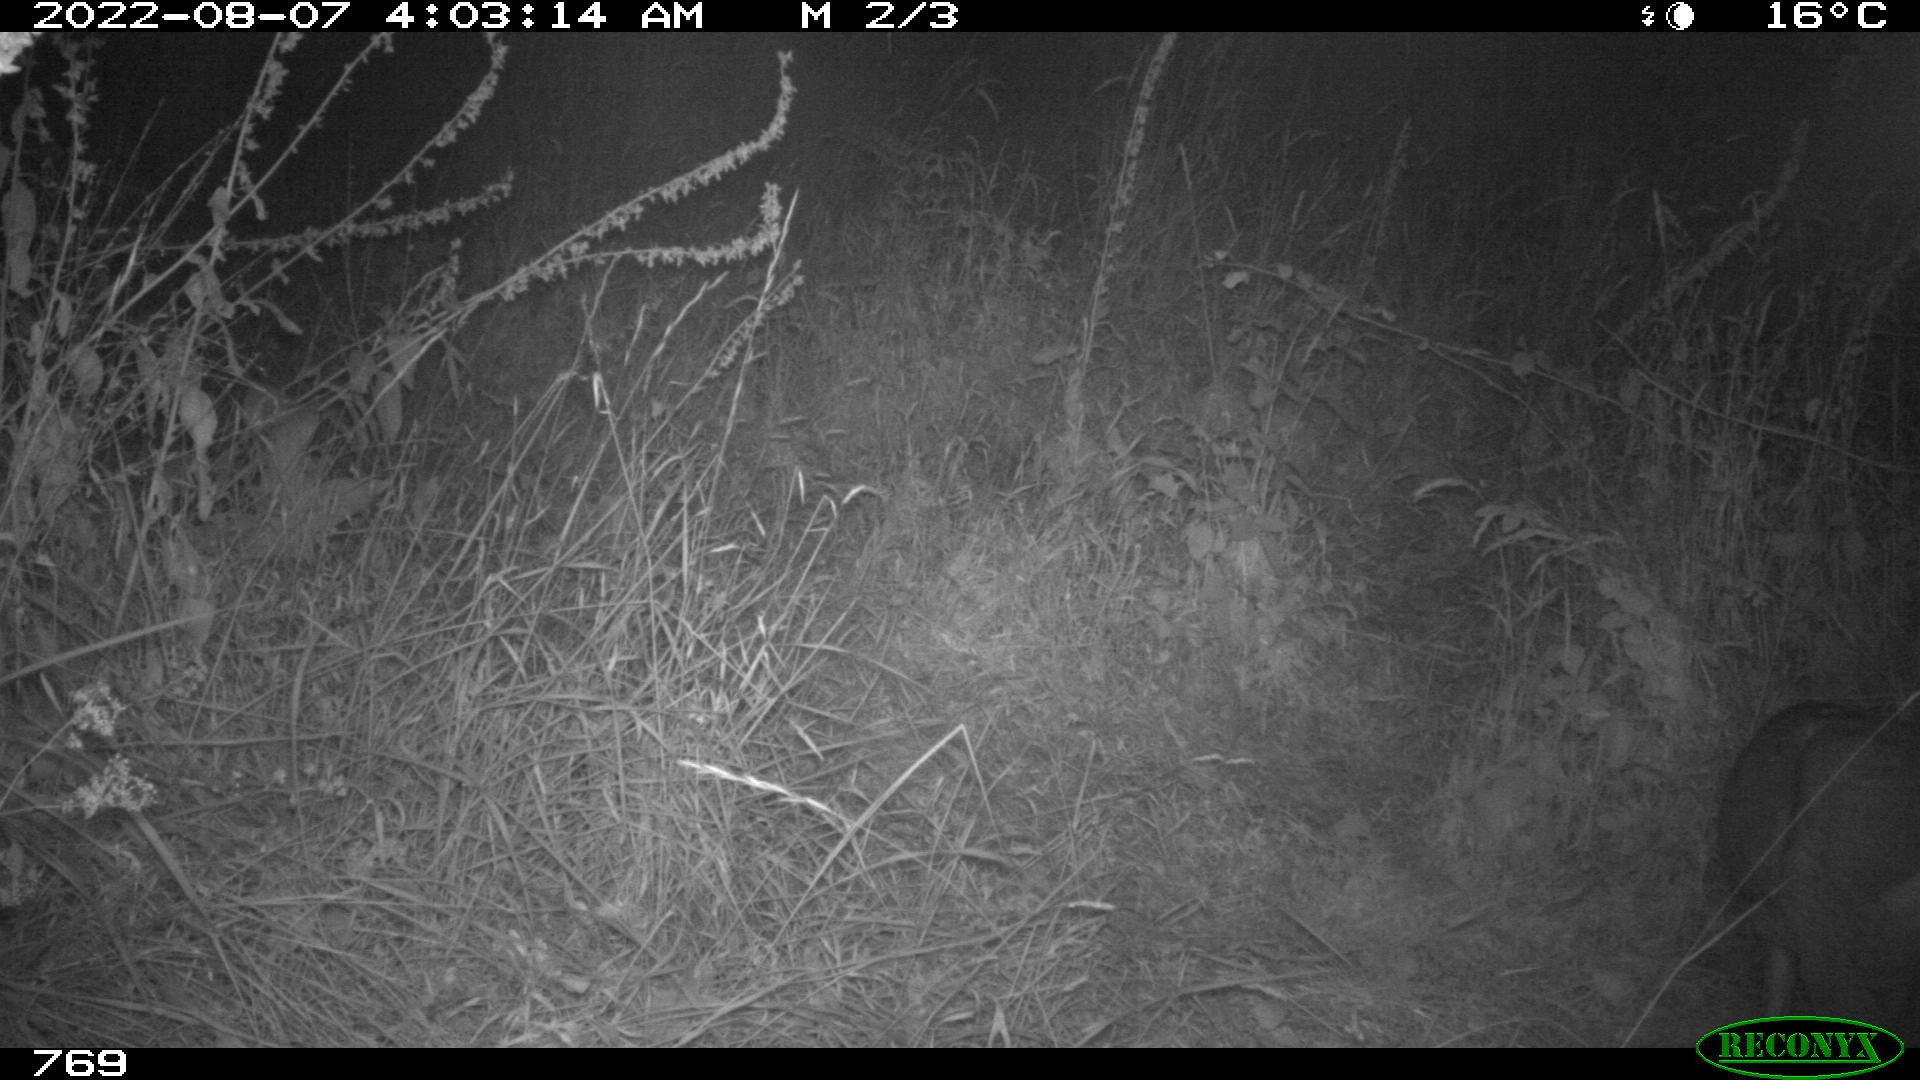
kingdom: Animalia
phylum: Chordata
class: Mammalia
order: Artiodactyla
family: Cervidae
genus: Capreolus
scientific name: Capreolus capreolus
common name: Western roe deer
